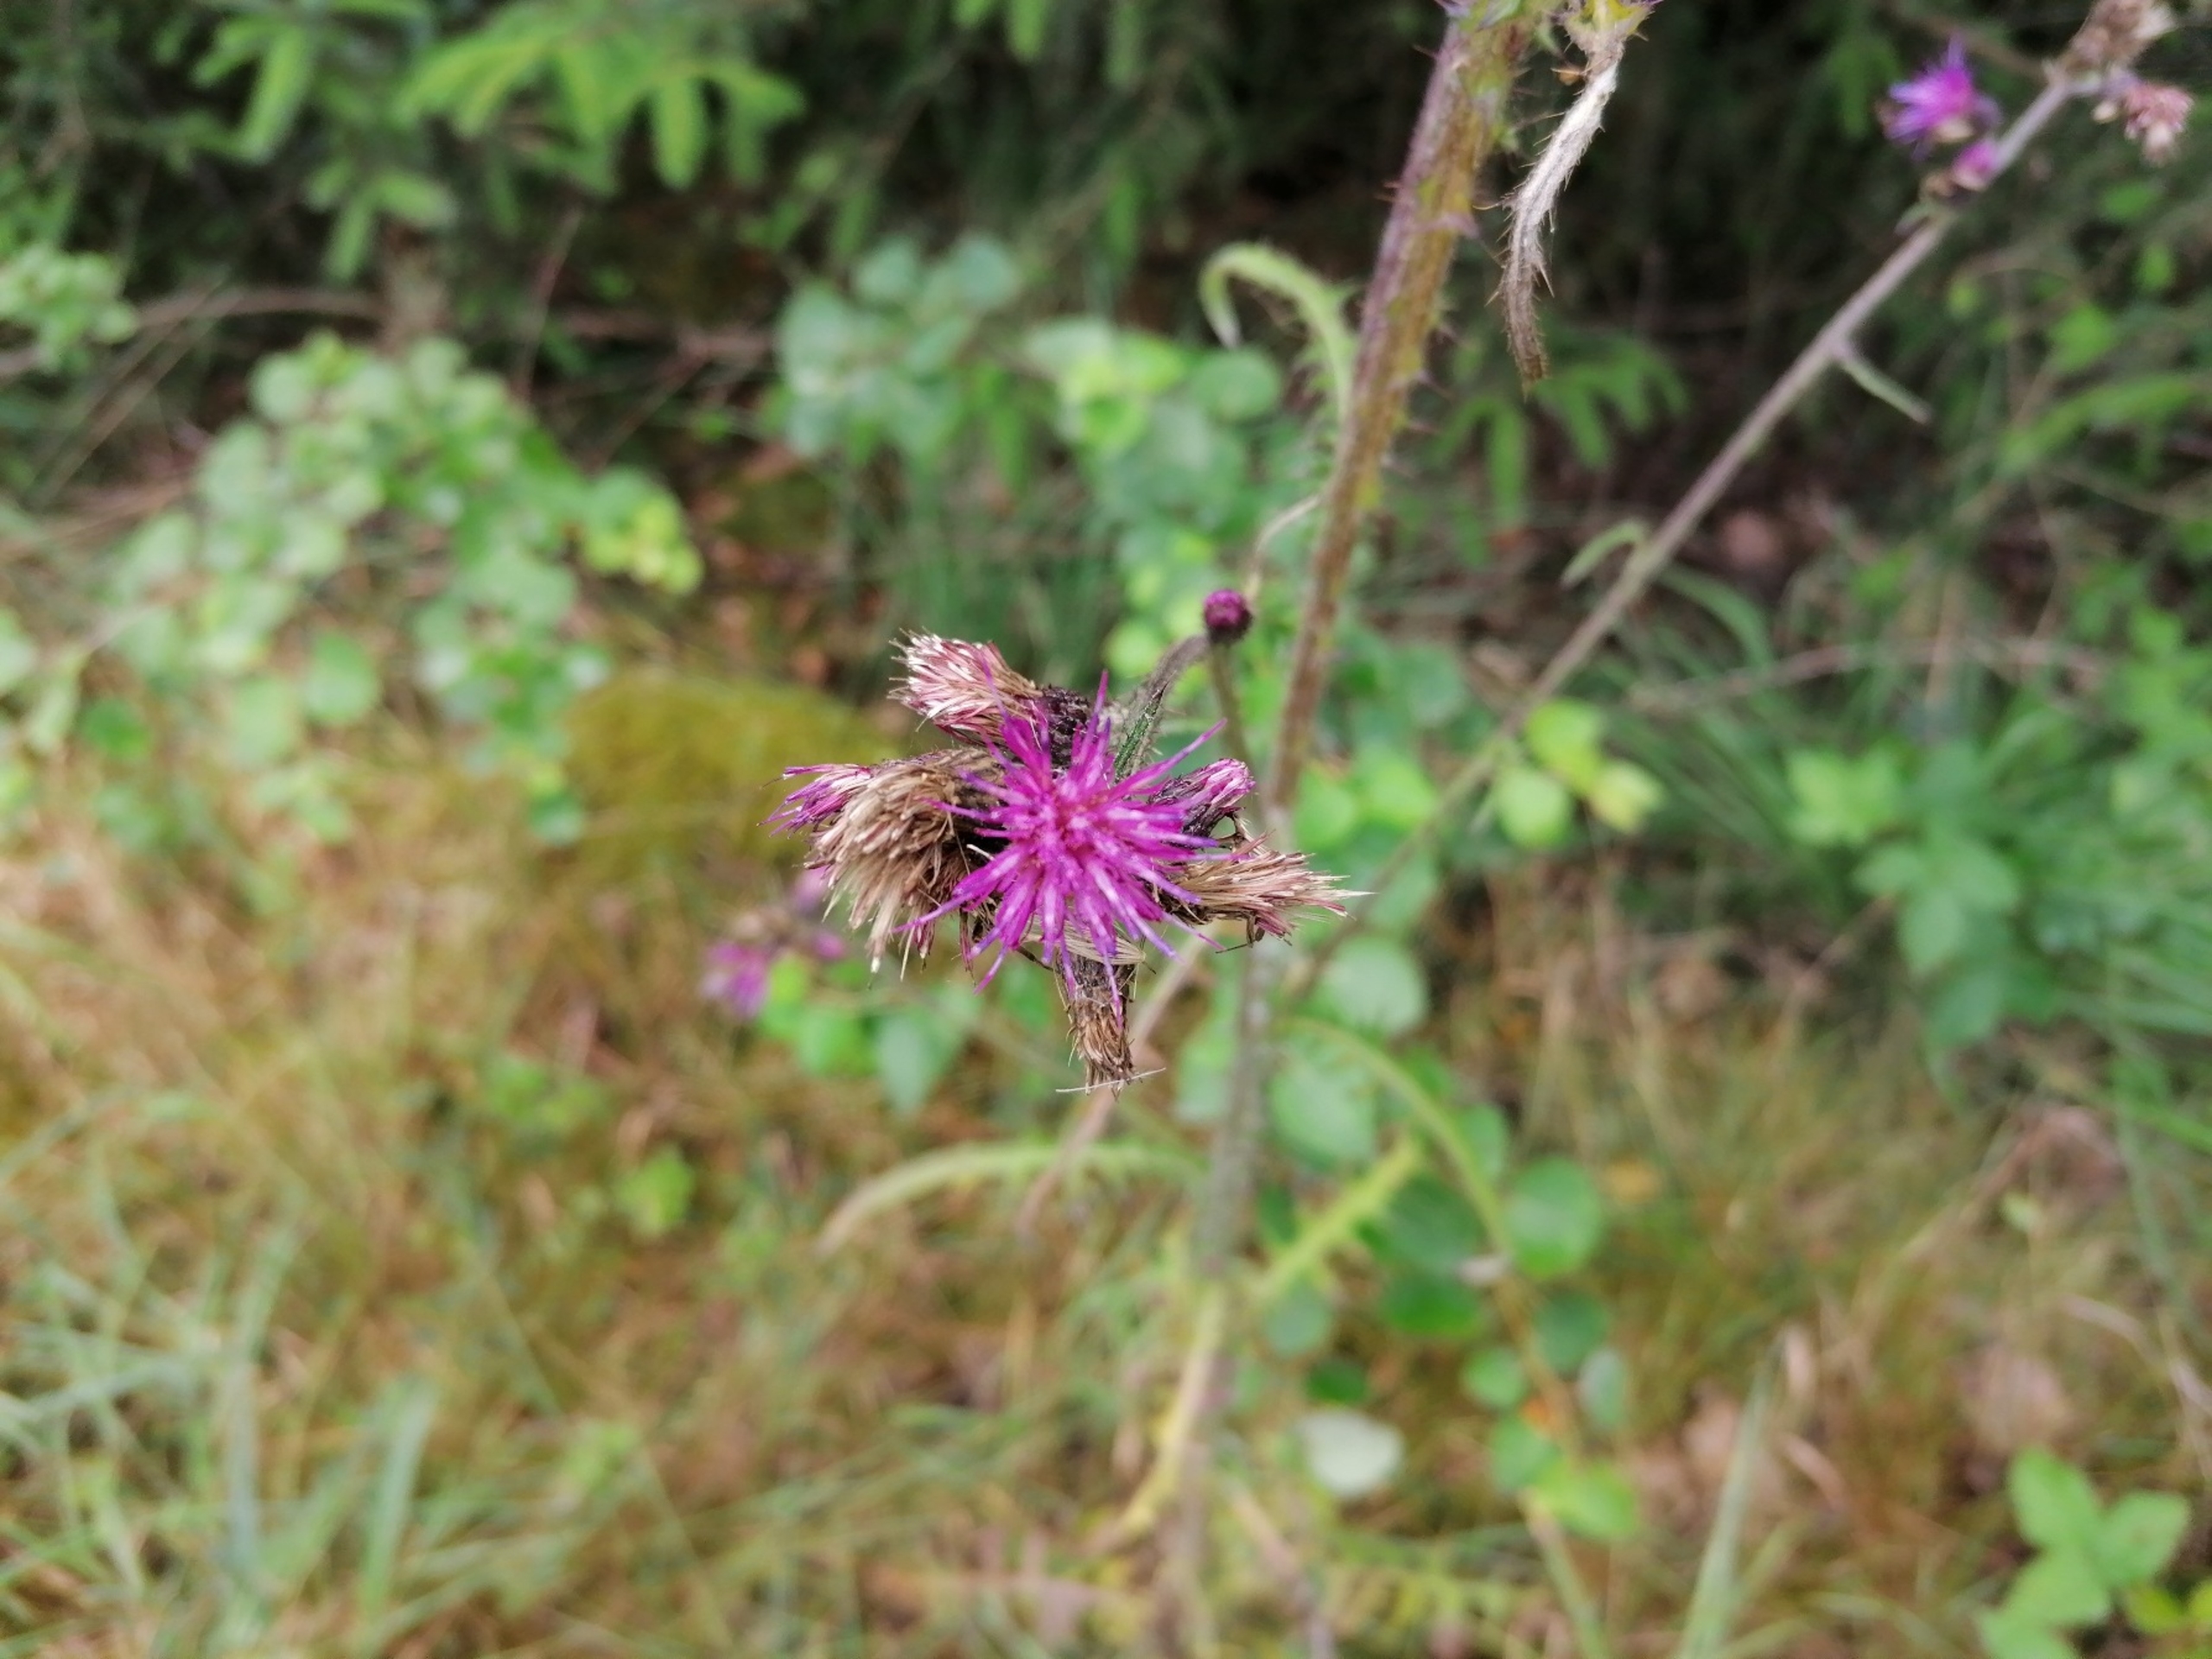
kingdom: Plantae
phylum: Tracheophyta
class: Magnoliopsida
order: Asterales
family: Asteraceae
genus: Cirsium
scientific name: Cirsium palustre
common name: Kær-tidsel
